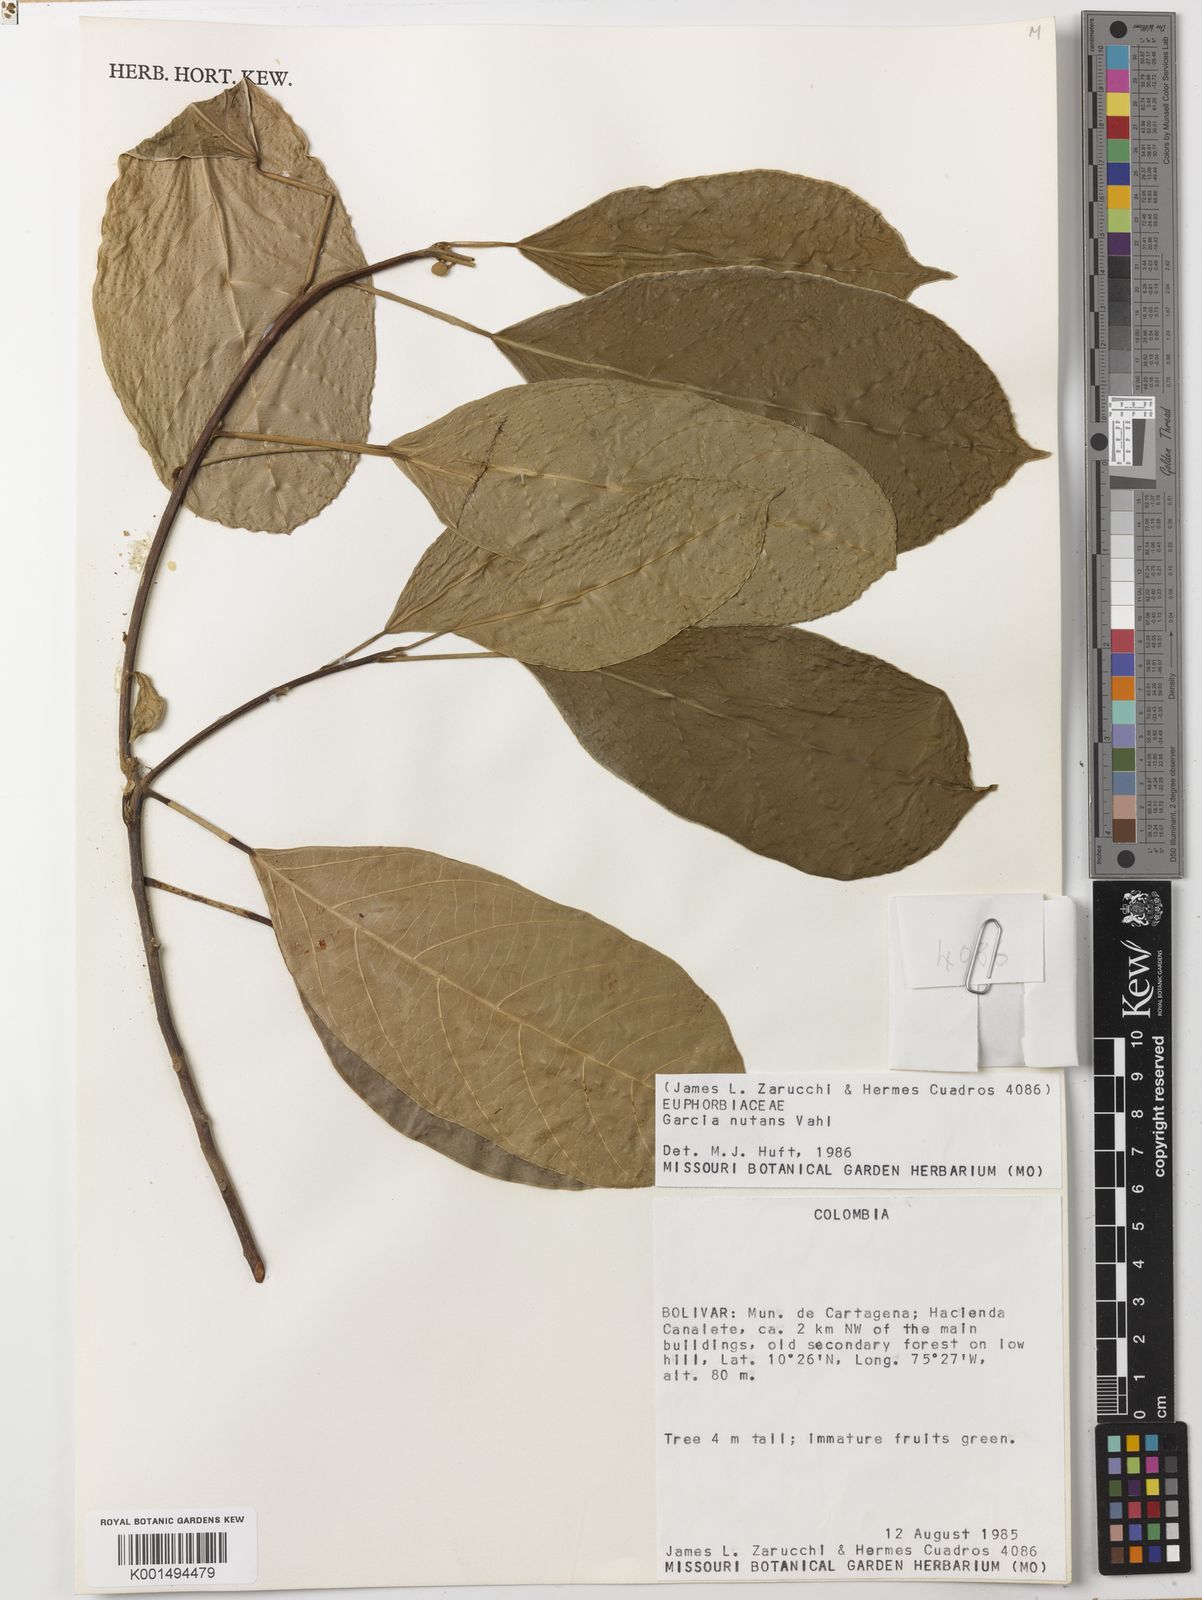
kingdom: Plantae
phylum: Tracheophyta
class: Magnoliopsida
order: Malpighiales
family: Euphorbiaceae
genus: Garcia
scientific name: Garcia nutans
